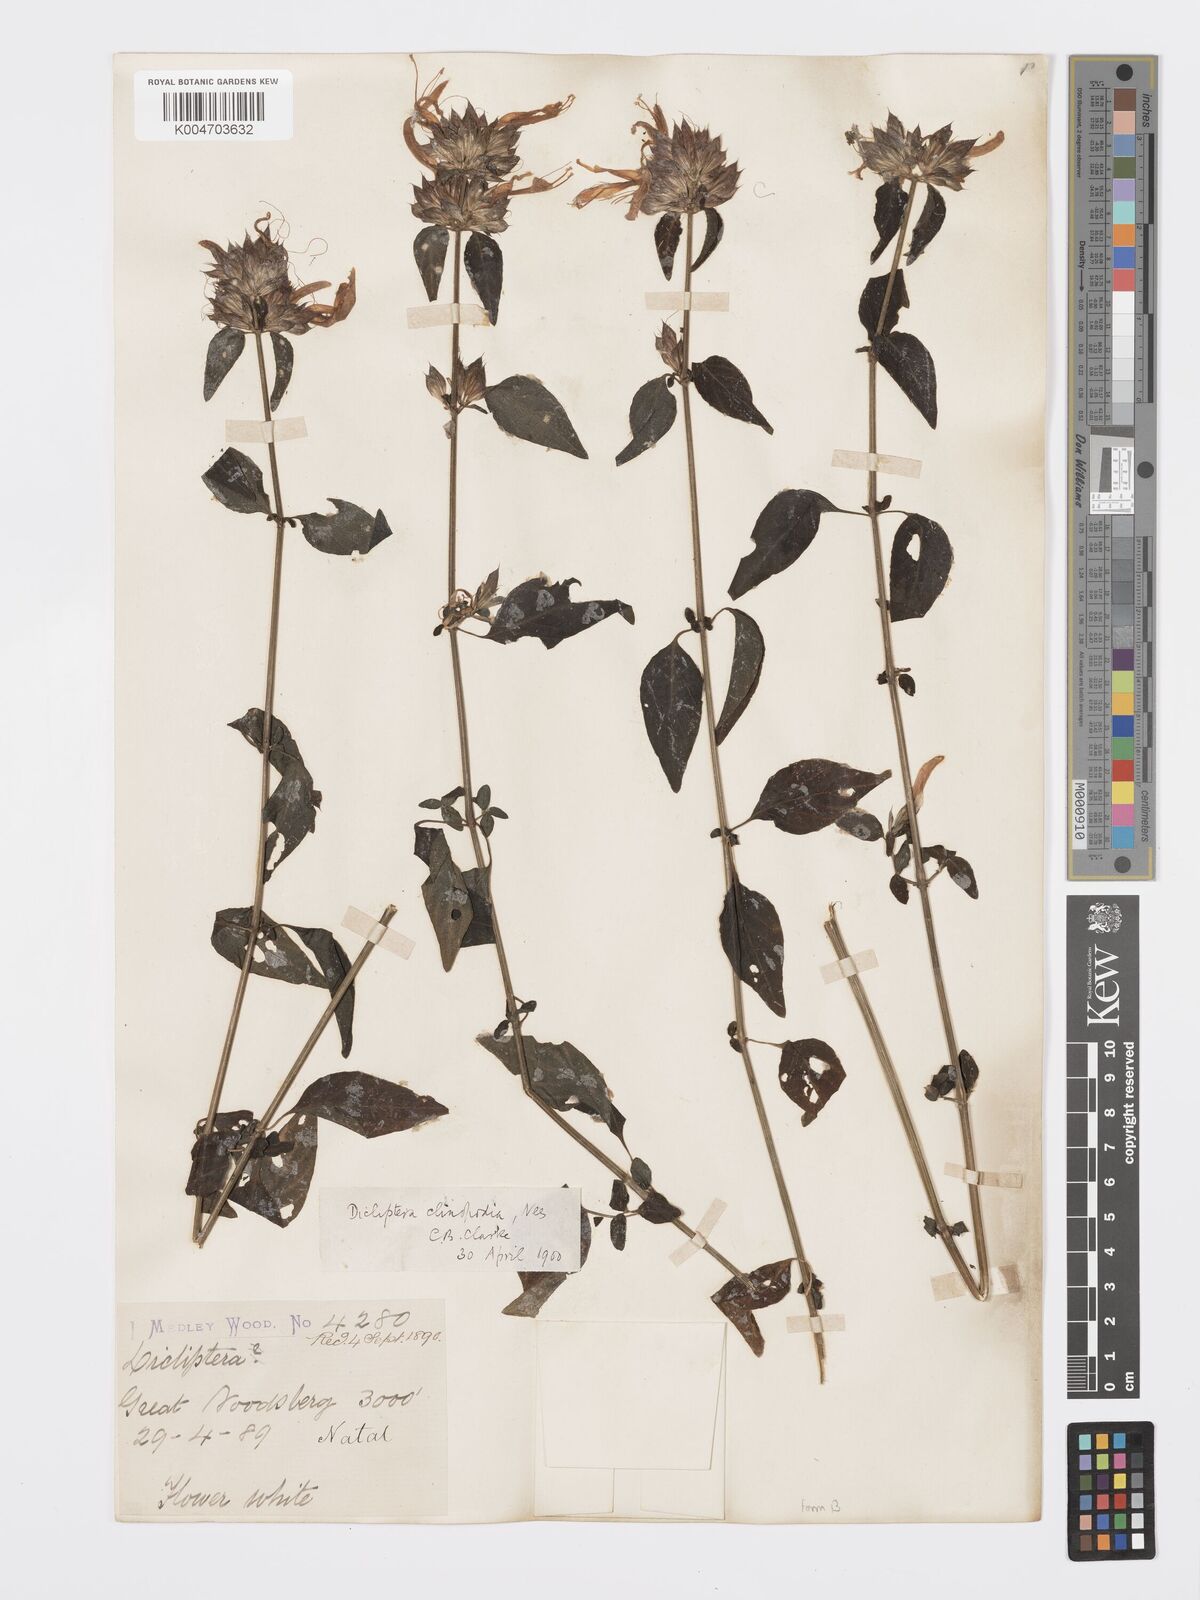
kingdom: Plantae
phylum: Tracheophyta
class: Magnoliopsida
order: Lamiales
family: Acanthaceae
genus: Dicliptera
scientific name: Dicliptera clinopodia
